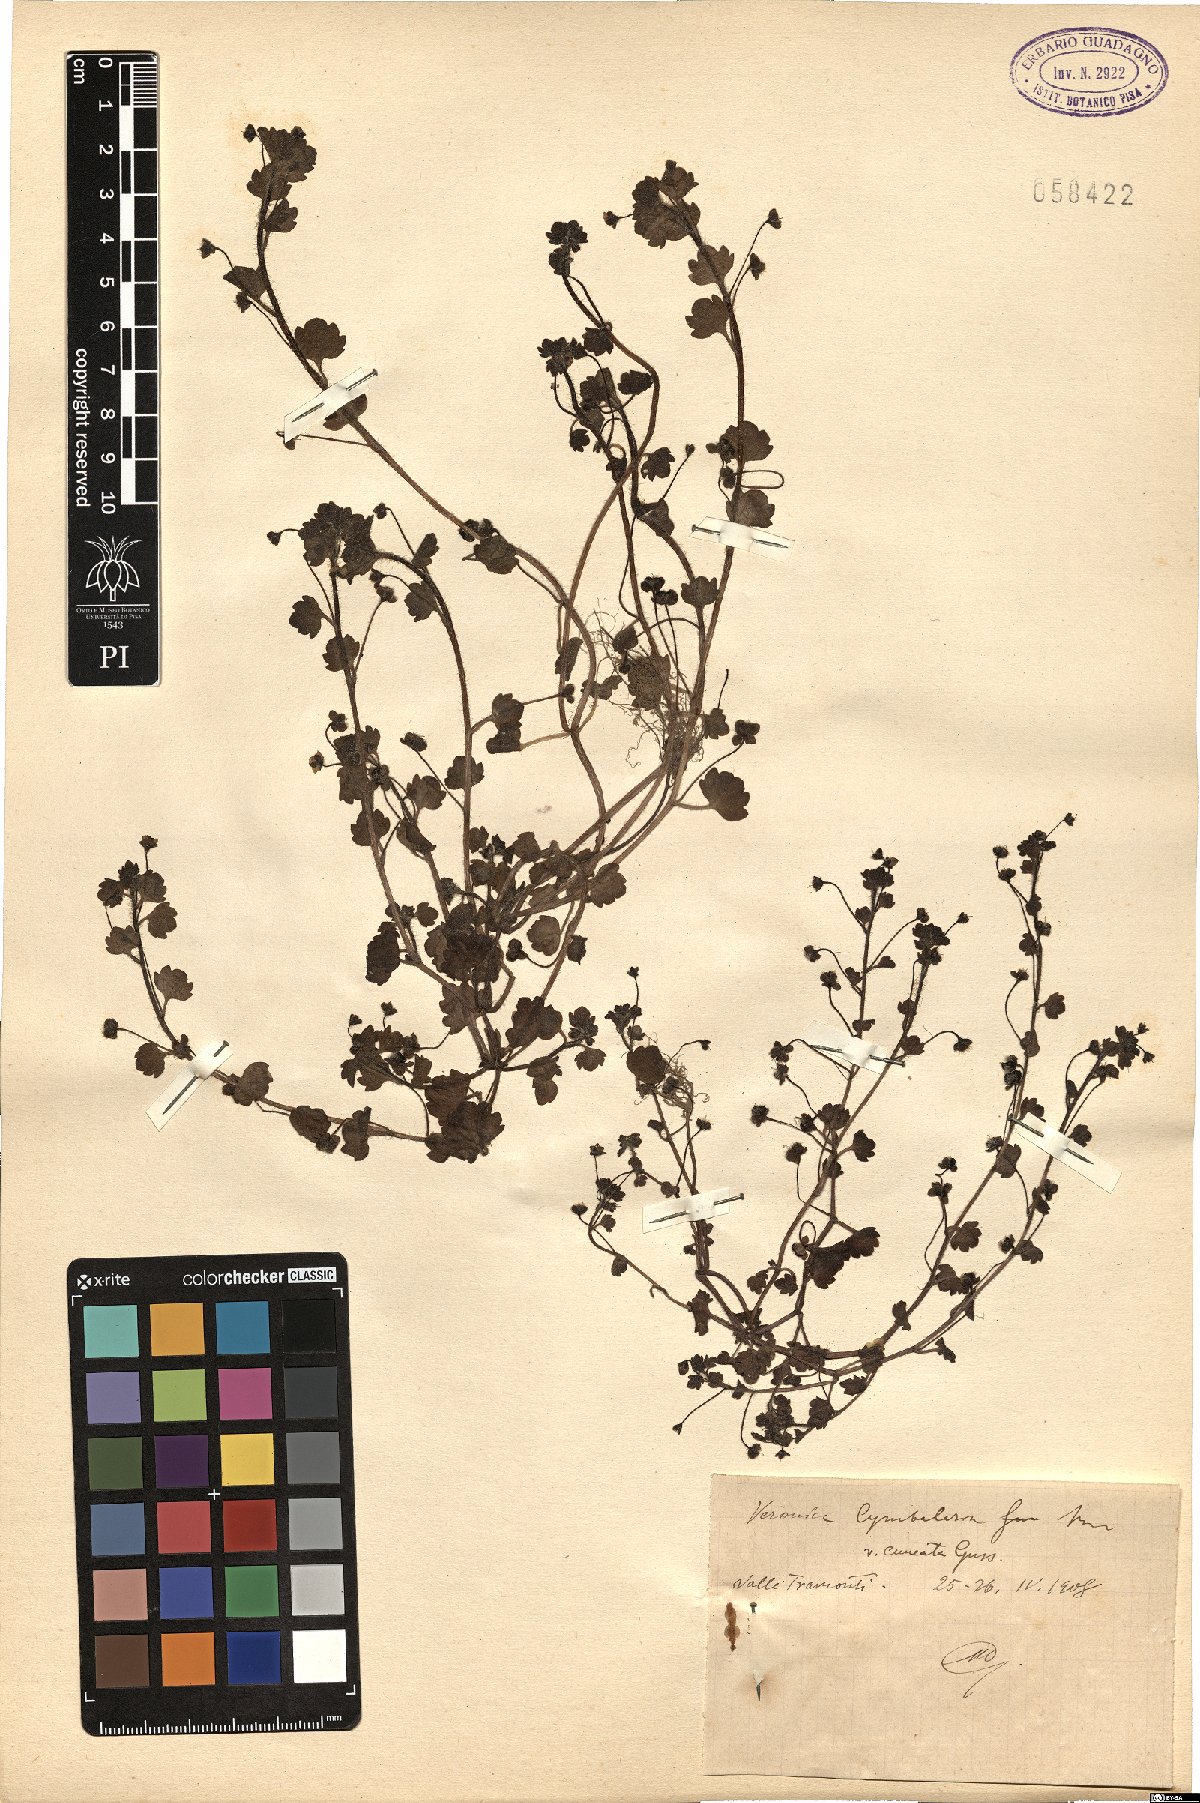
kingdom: Plantae
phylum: Tracheophyta
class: Magnoliopsida
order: Lamiales
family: Plantaginaceae
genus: Veronica
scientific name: Veronica cymbalaria
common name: Pale speedwell
